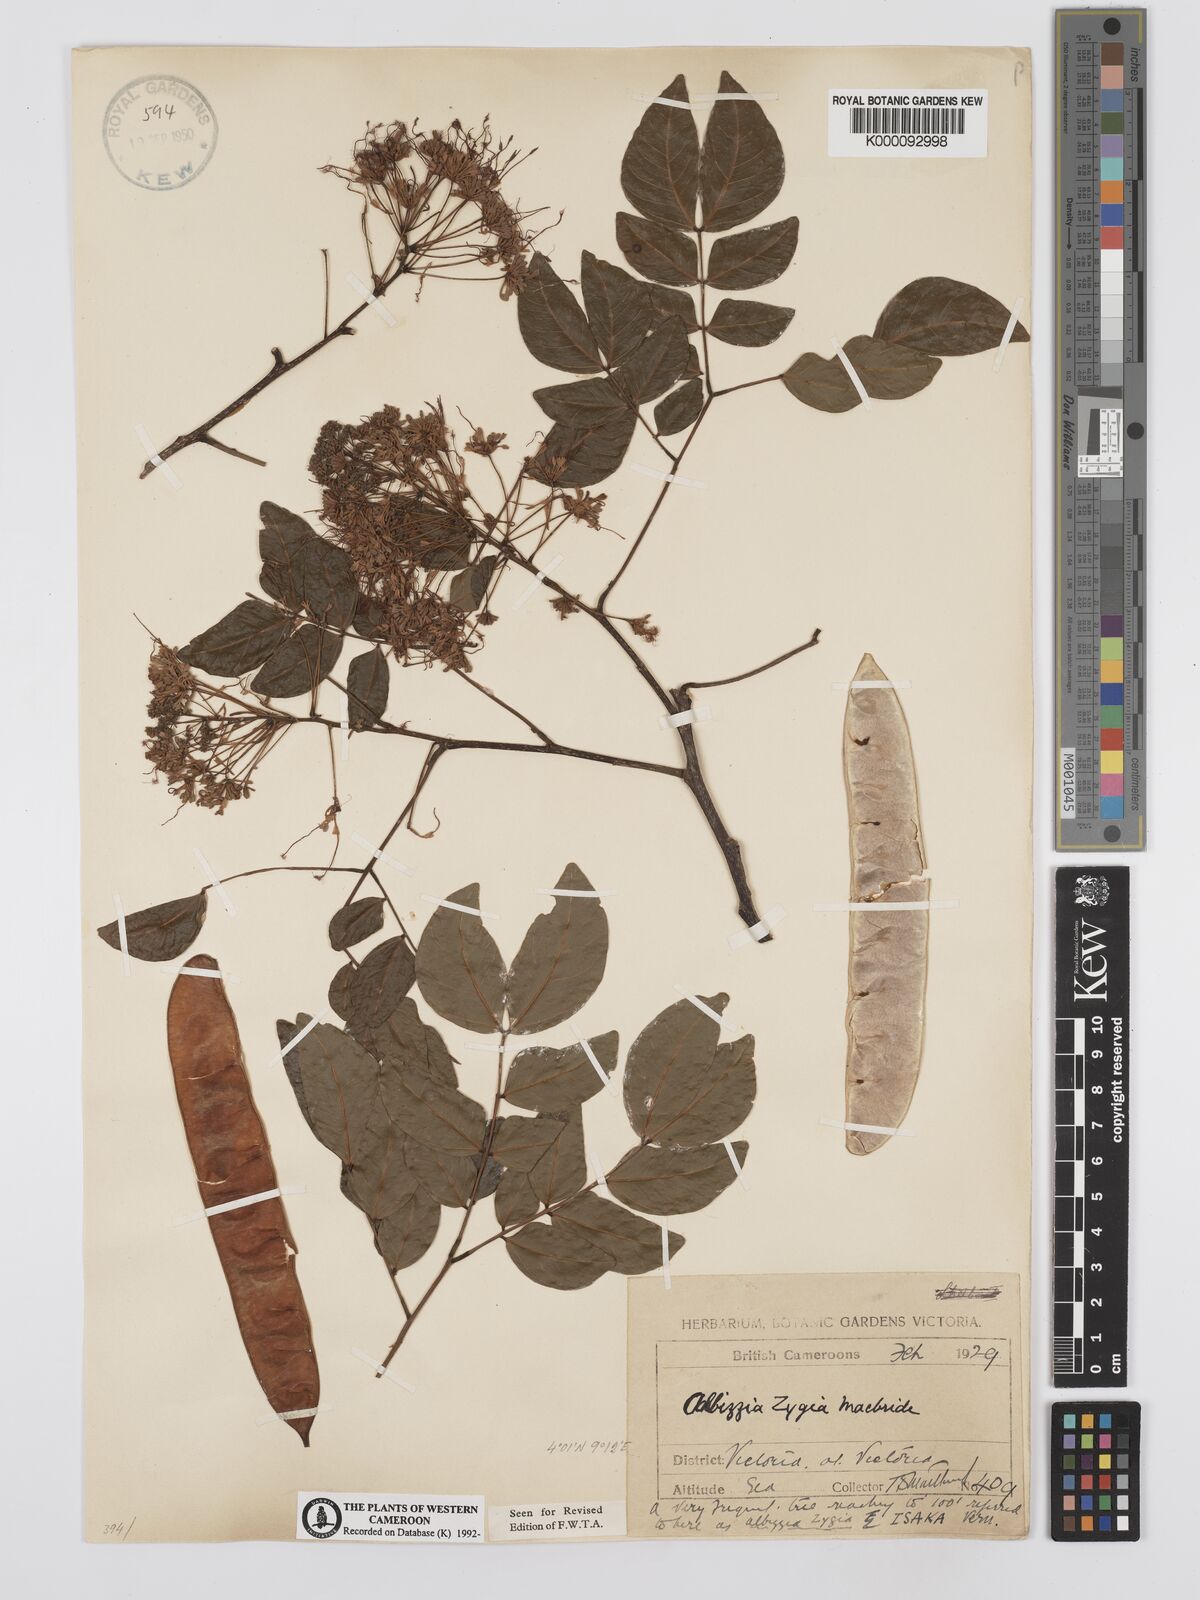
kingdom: Plantae
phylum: Tracheophyta
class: Magnoliopsida
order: Fabales
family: Fabaceae
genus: Albizia
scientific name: Albizia zygia
